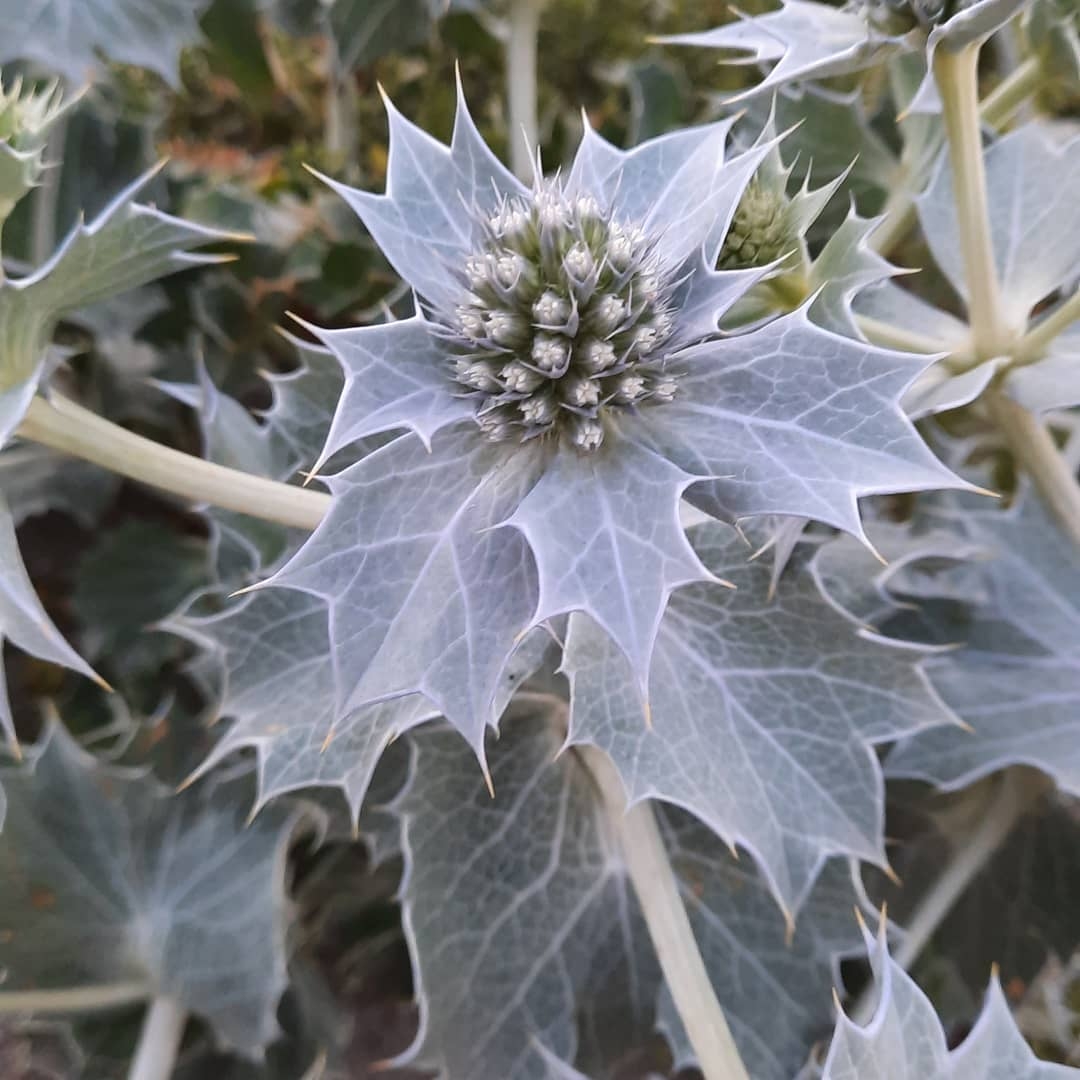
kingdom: Plantae
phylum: Tracheophyta
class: Magnoliopsida
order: Apiales
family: Apiaceae
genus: Eryngium
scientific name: Eryngium maritimum
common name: Strand-mandstro
